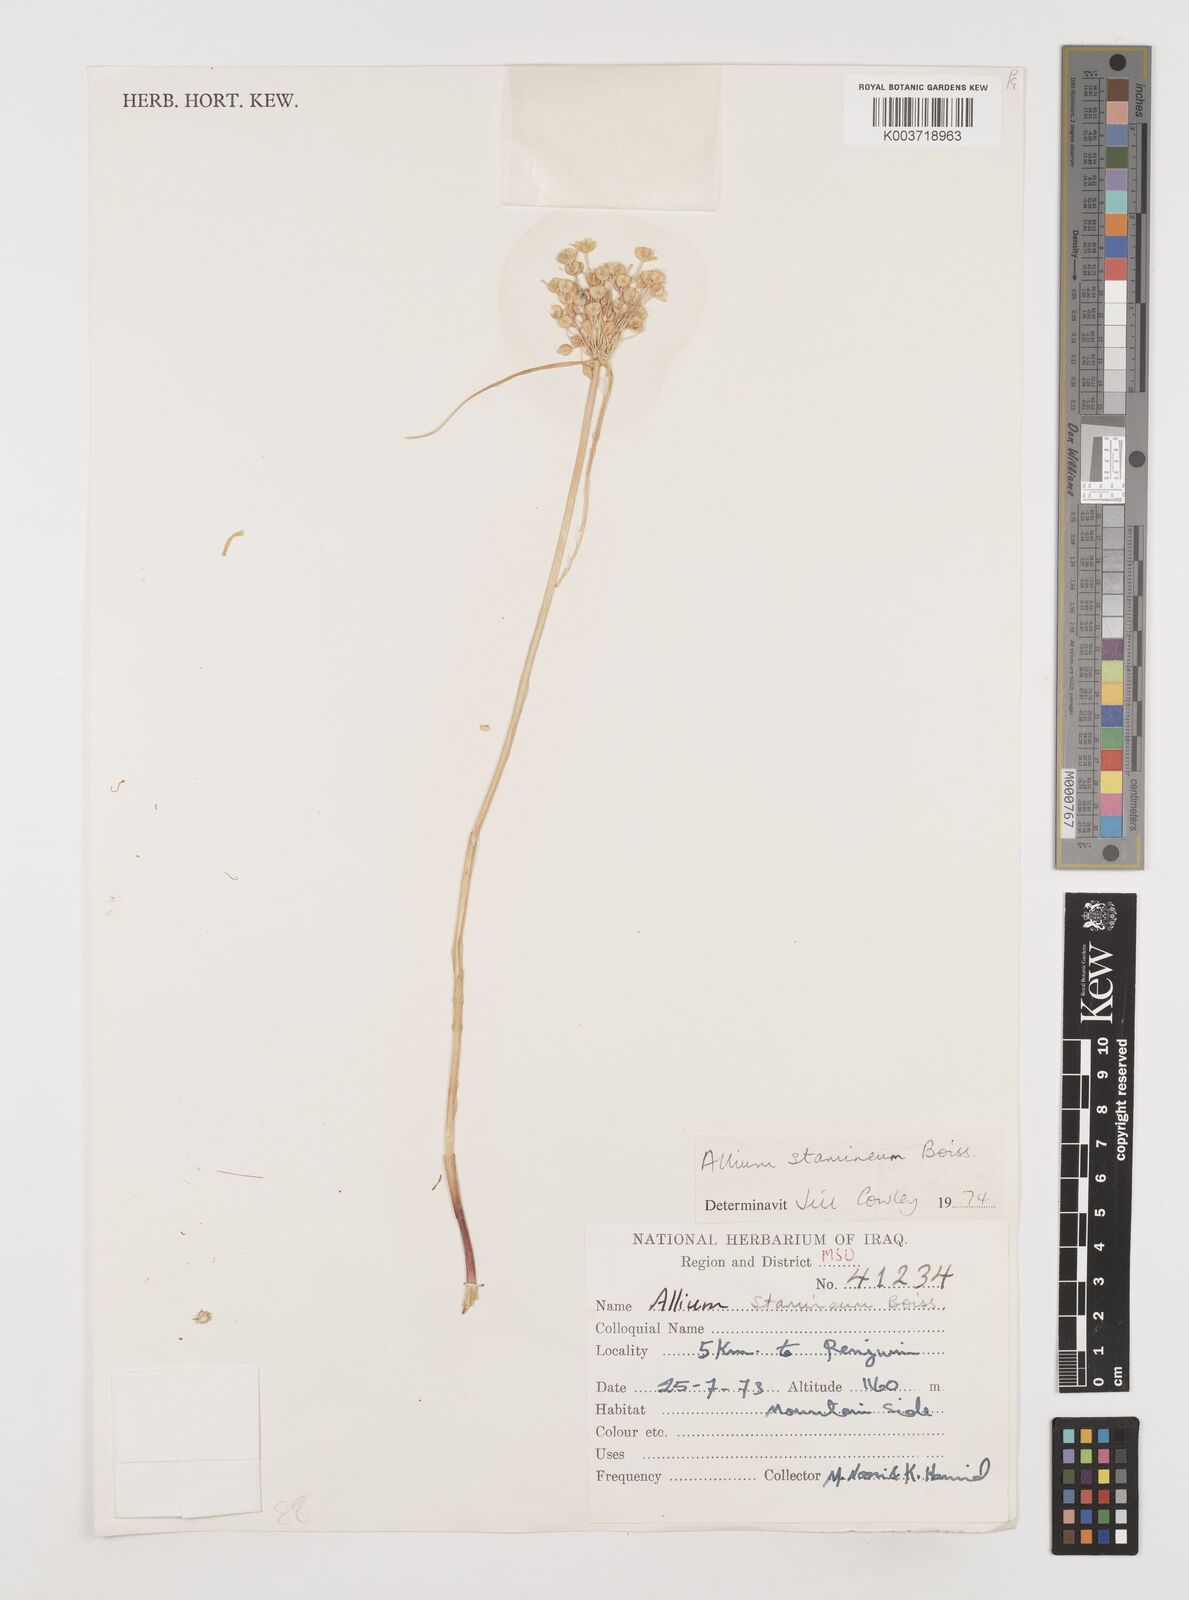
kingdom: Plantae
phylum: Tracheophyta
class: Liliopsida
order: Asparagales
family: Amaryllidaceae
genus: Allium
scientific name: Allium stamineum
